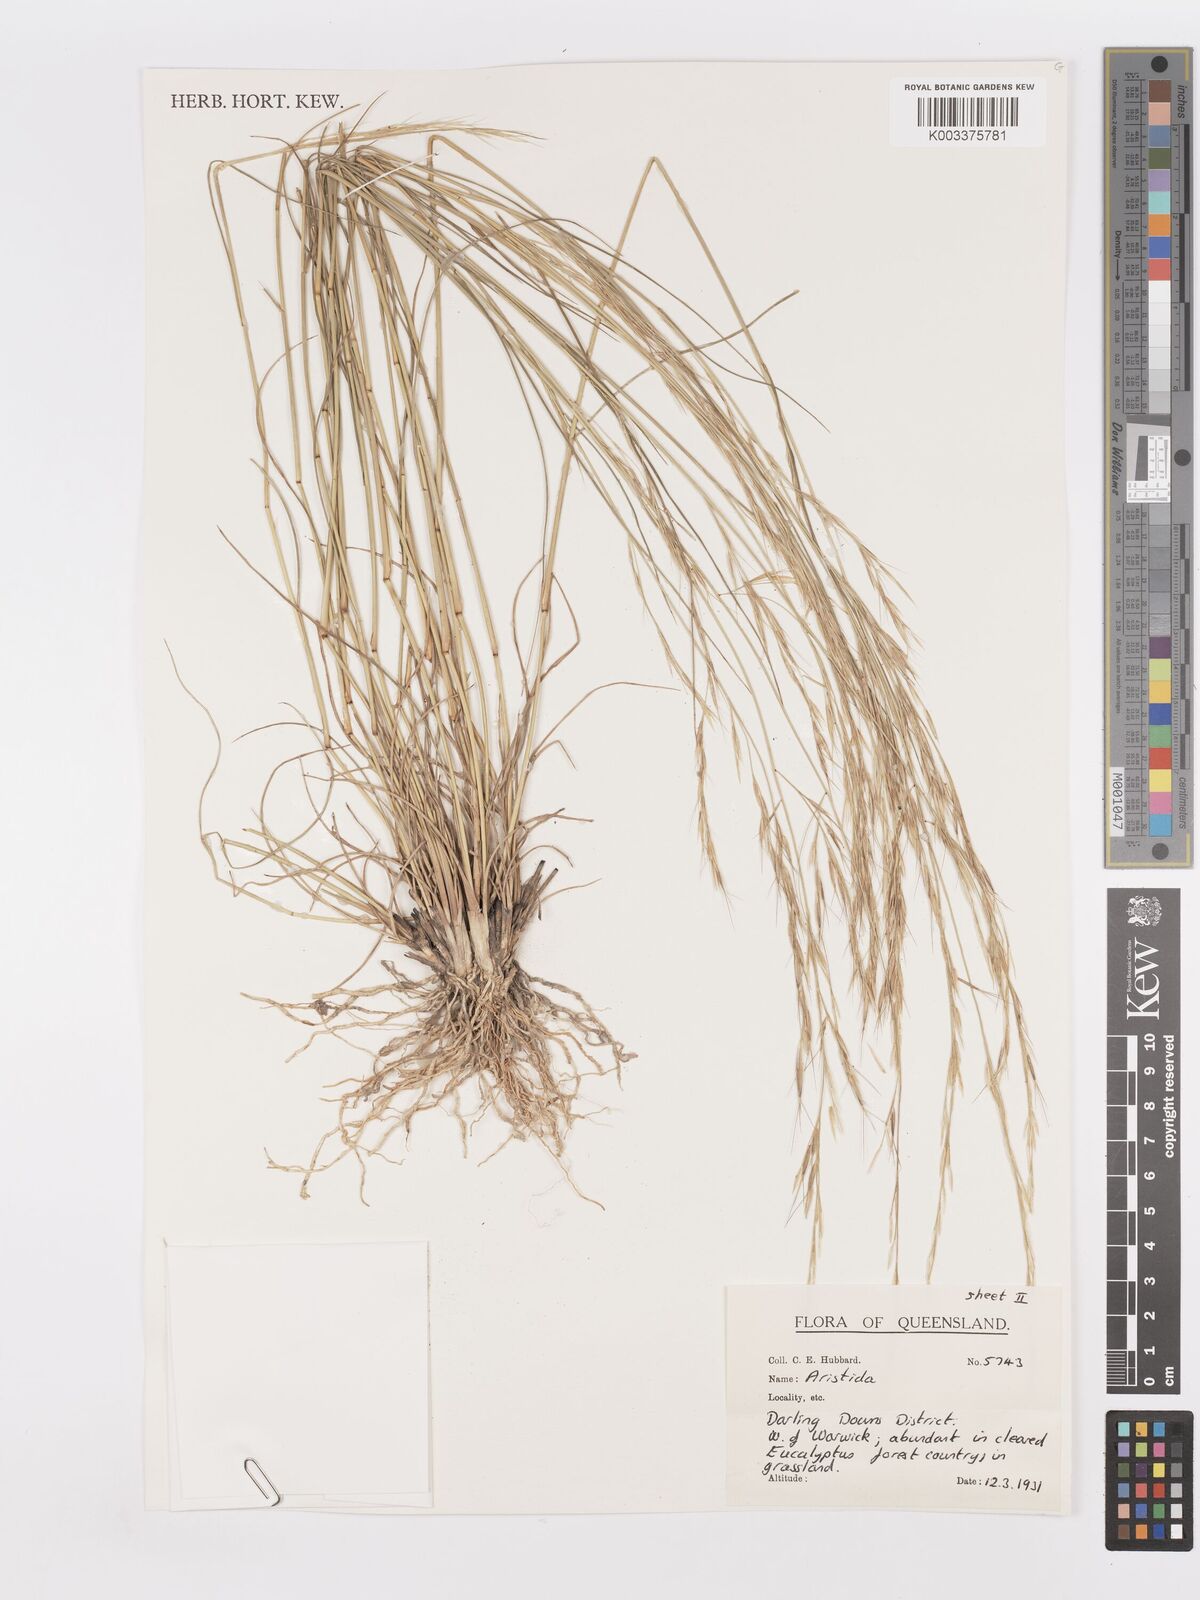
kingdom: Plantae
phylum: Tracheophyta
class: Liliopsida
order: Poales
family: Poaceae
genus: Aristida
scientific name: Aristida
